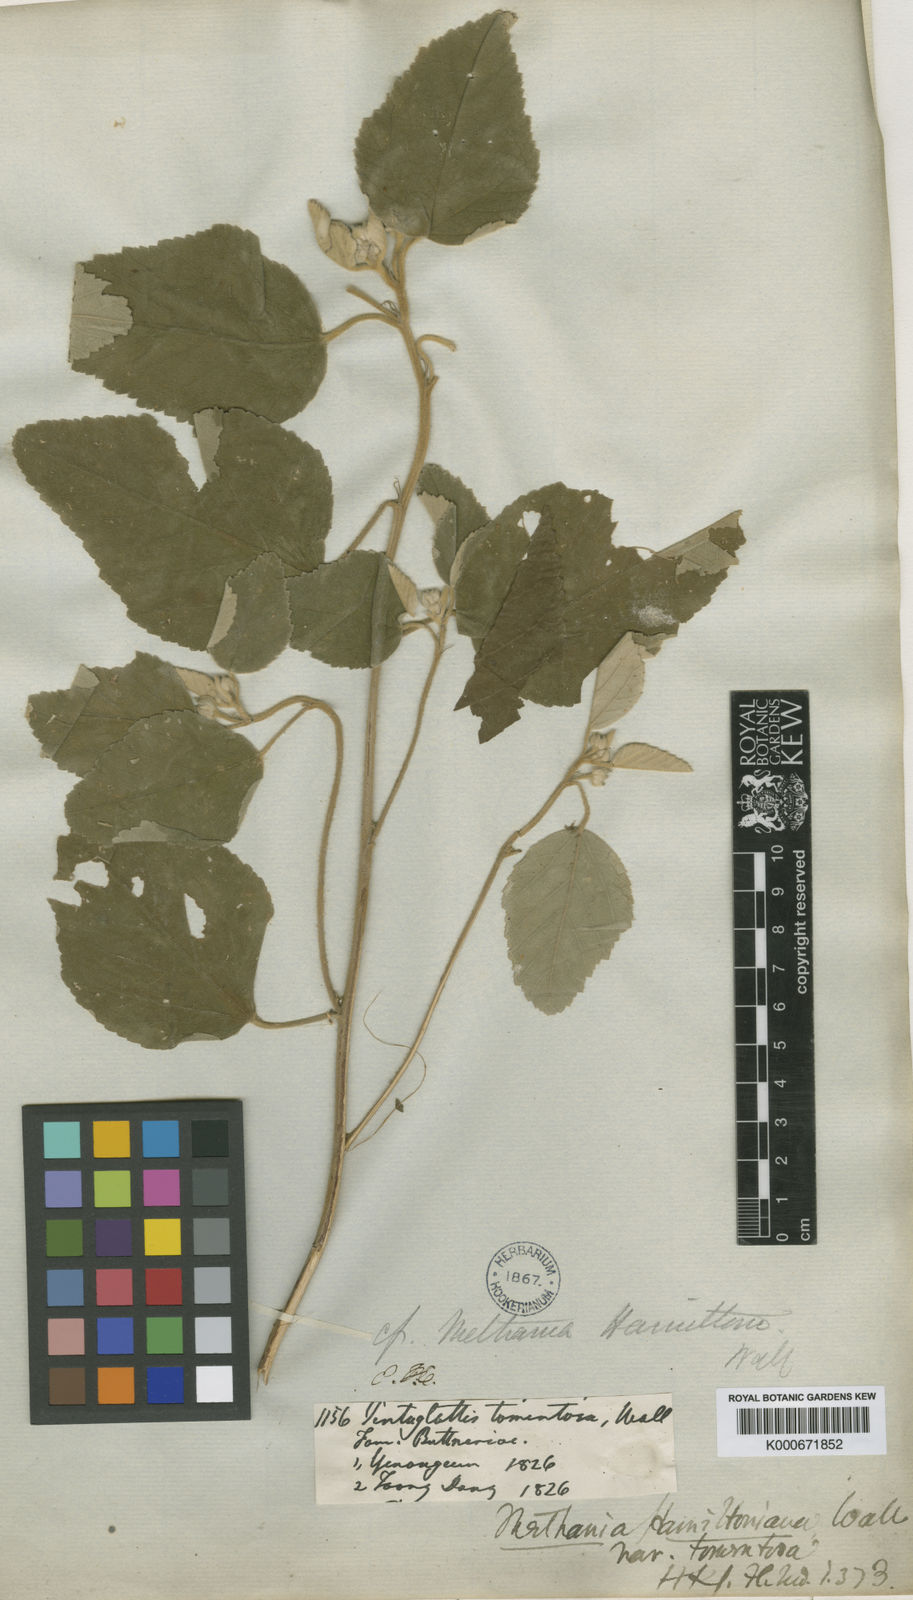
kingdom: Plantae
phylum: Tracheophyta
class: Magnoliopsida
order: Malvales
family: Malvaceae
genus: Melhania
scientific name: Melhania hamiltoniana
